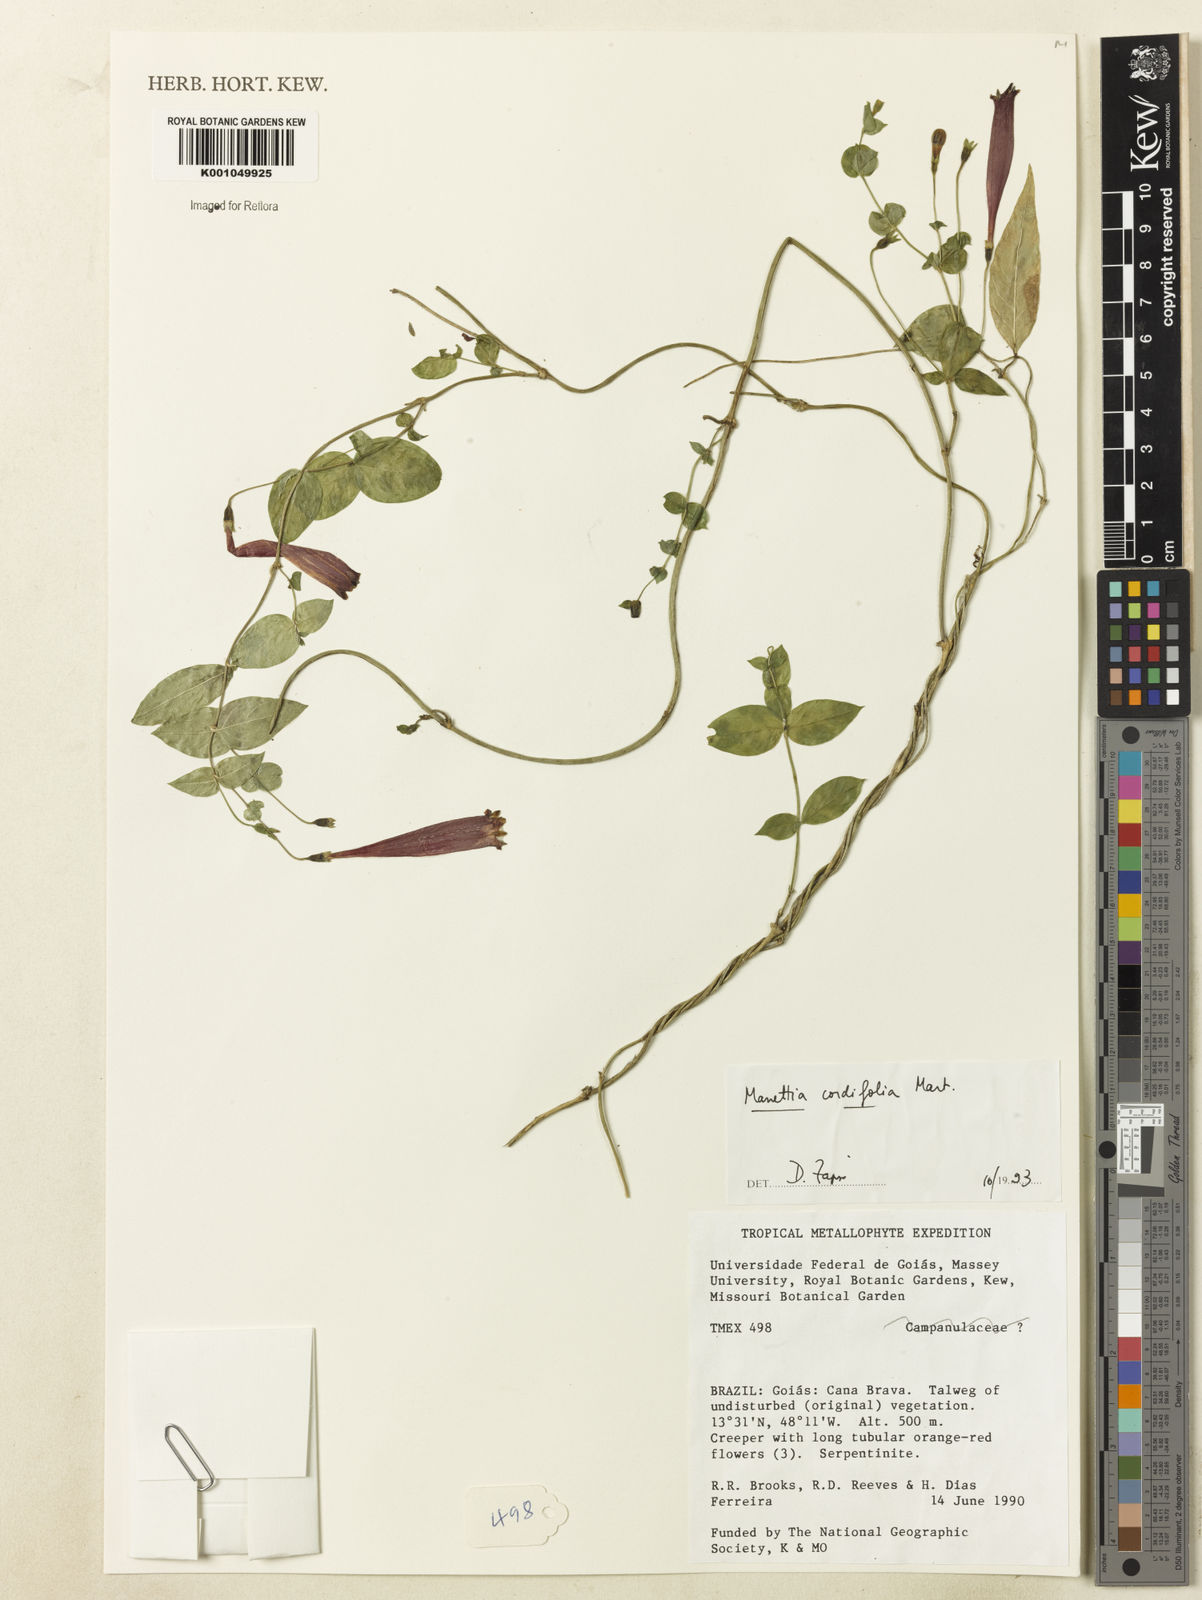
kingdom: Plantae
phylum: Tracheophyta
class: Magnoliopsida
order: Gentianales
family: Rubiaceae
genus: Manettia
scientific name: Manettia cordifolia
